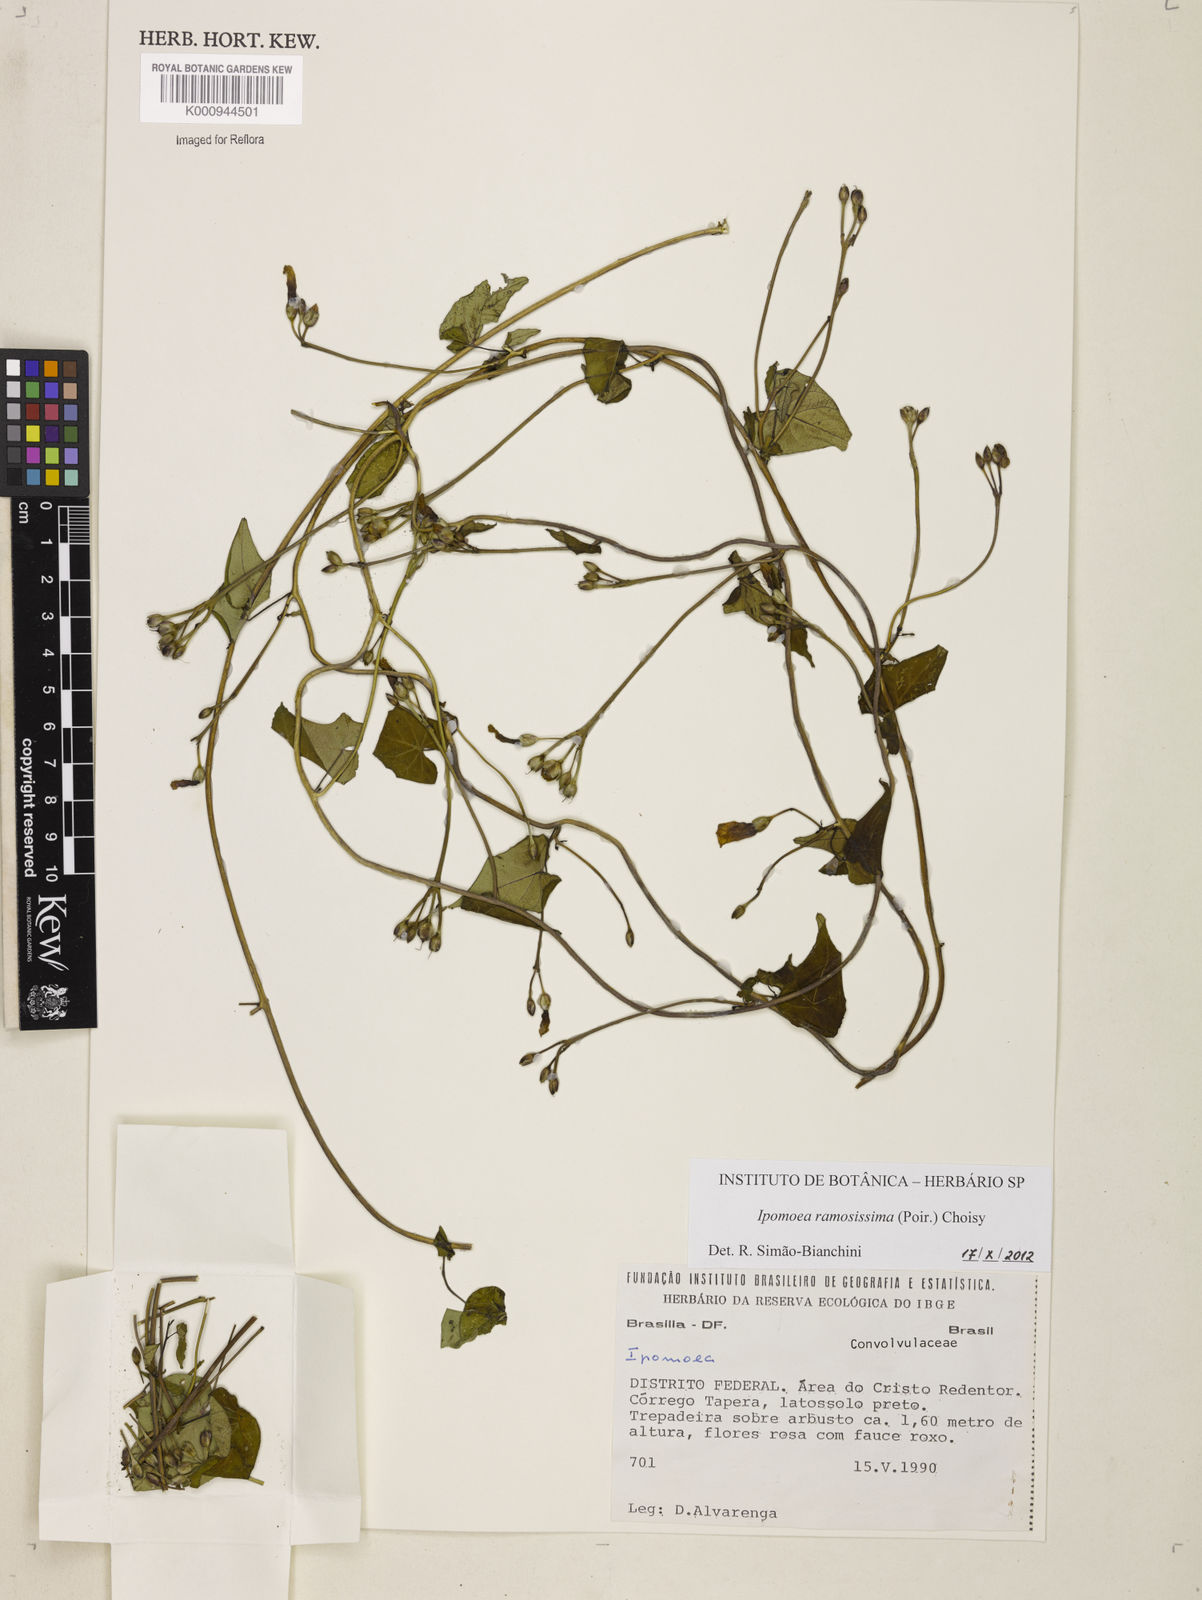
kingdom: Plantae
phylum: Tracheophyta
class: Magnoliopsida
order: Solanales
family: Convolvulaceae
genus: Ipomoea
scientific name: Ipomoea ramosissima
